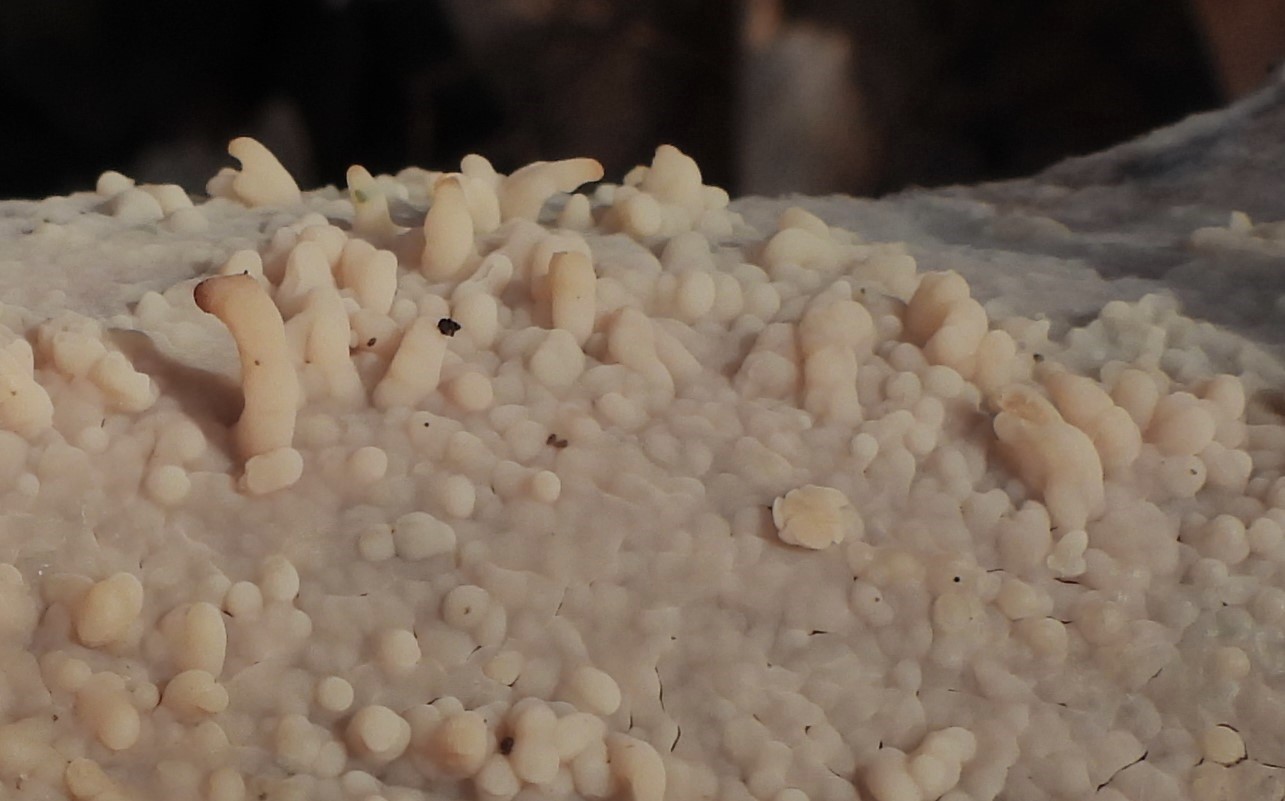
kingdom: Fungi
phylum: Basidiomycota
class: Agaricomycetes
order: Polyporales
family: Meruliaceae
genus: Phlebia
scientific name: Phlebia radiata
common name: stråle-åresvamp
